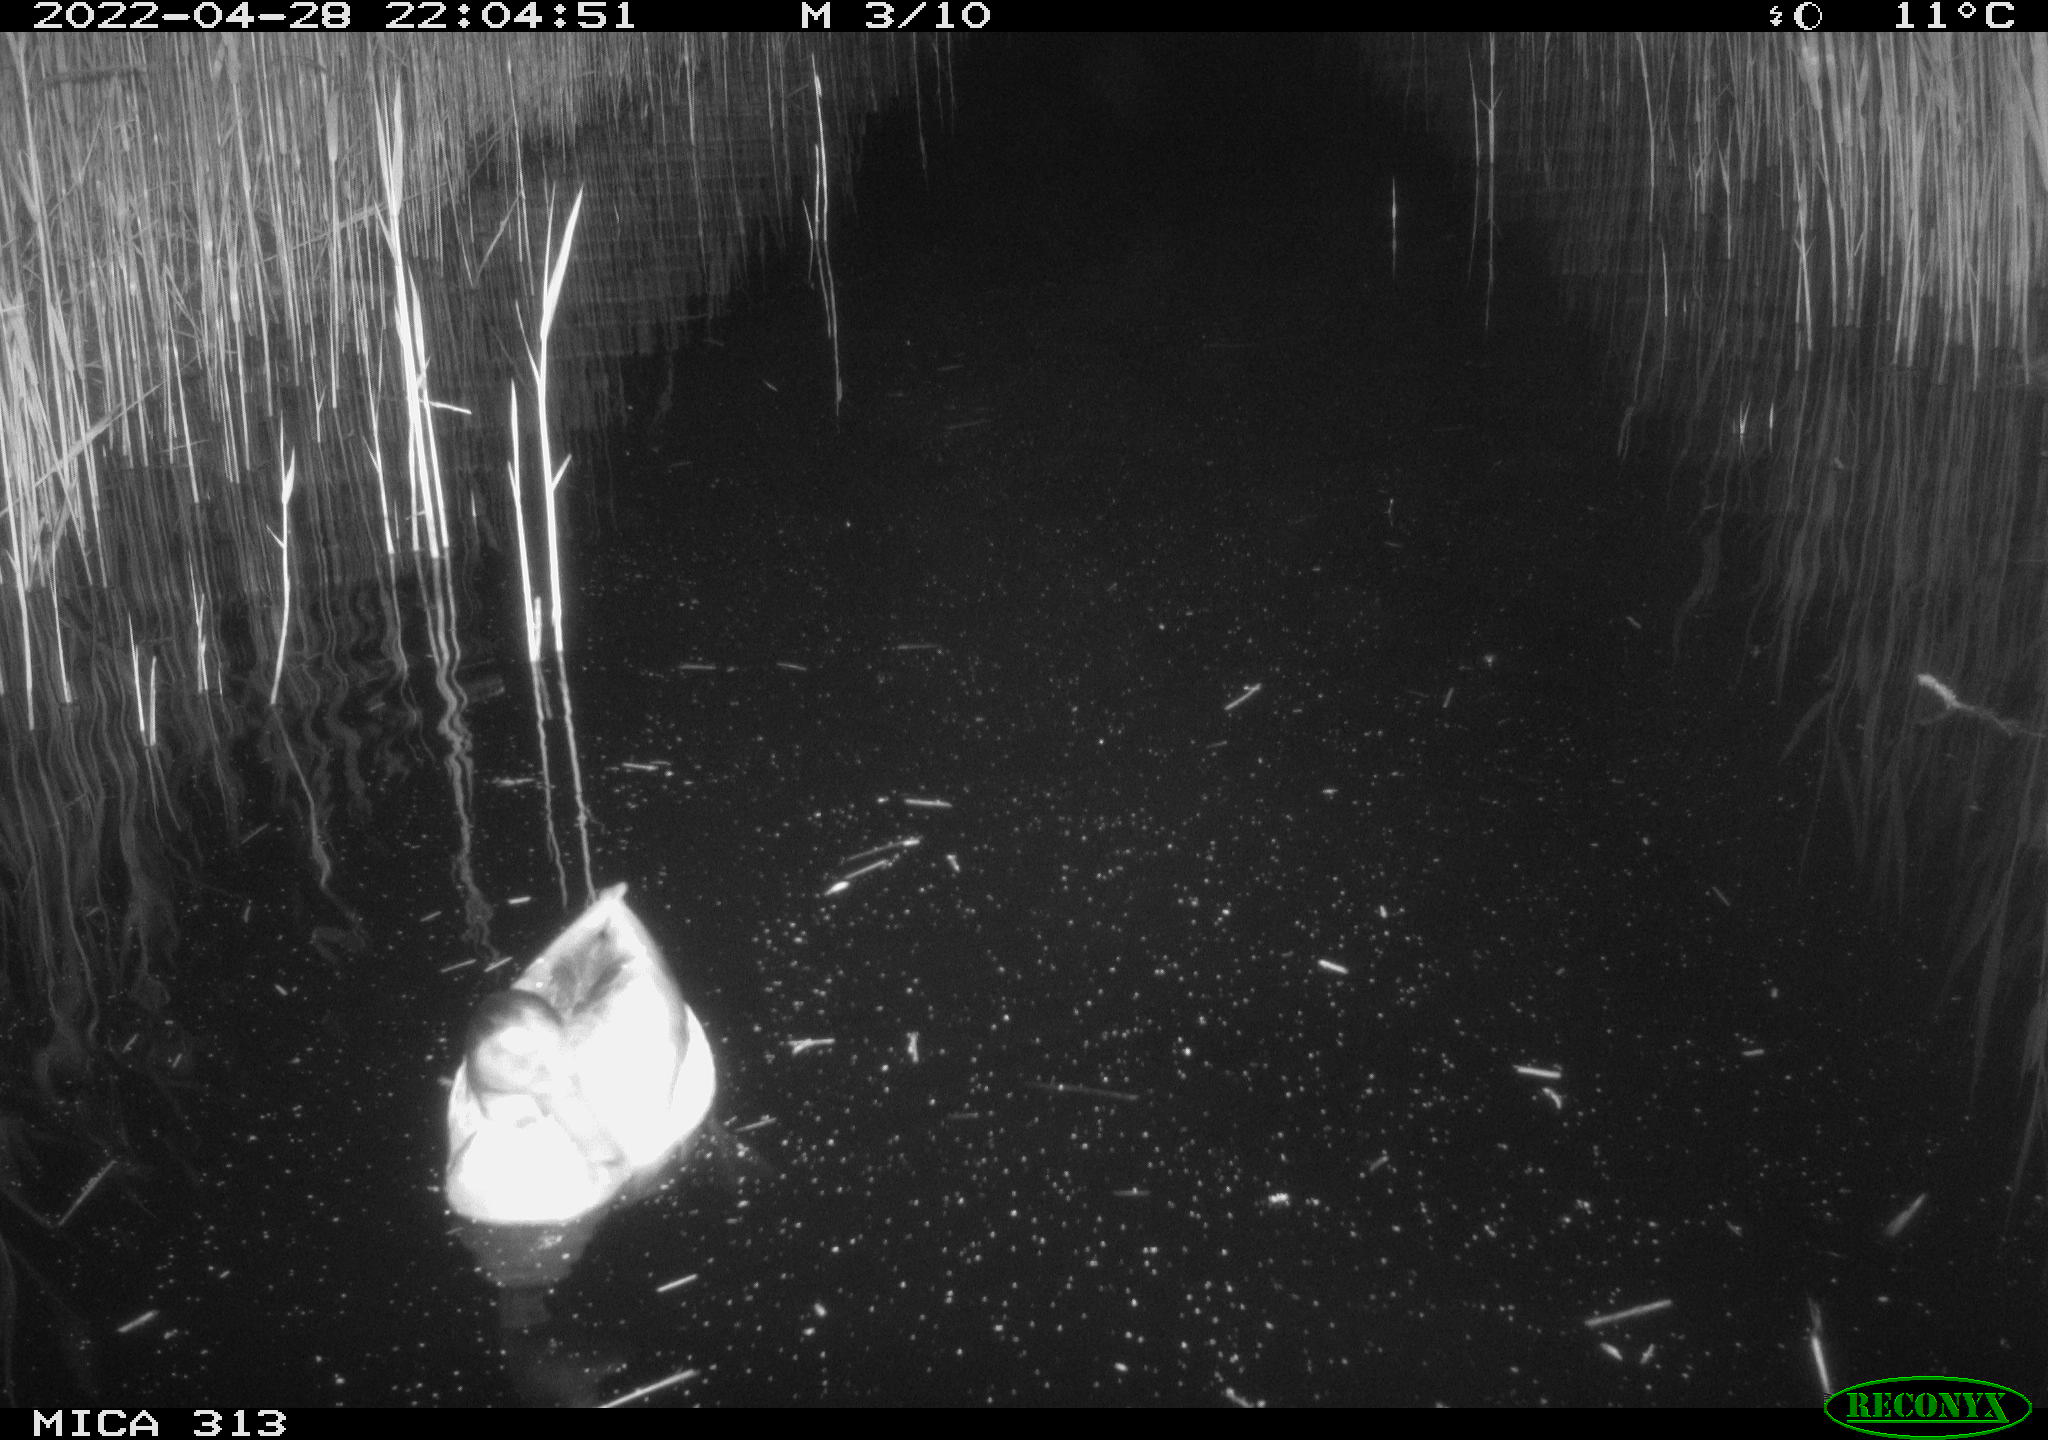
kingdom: Animalia
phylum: Chordata
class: Aves
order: Gruiformes
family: Rallidae
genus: Gallinula
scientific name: Gallinula chloropus
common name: Common moorhen
